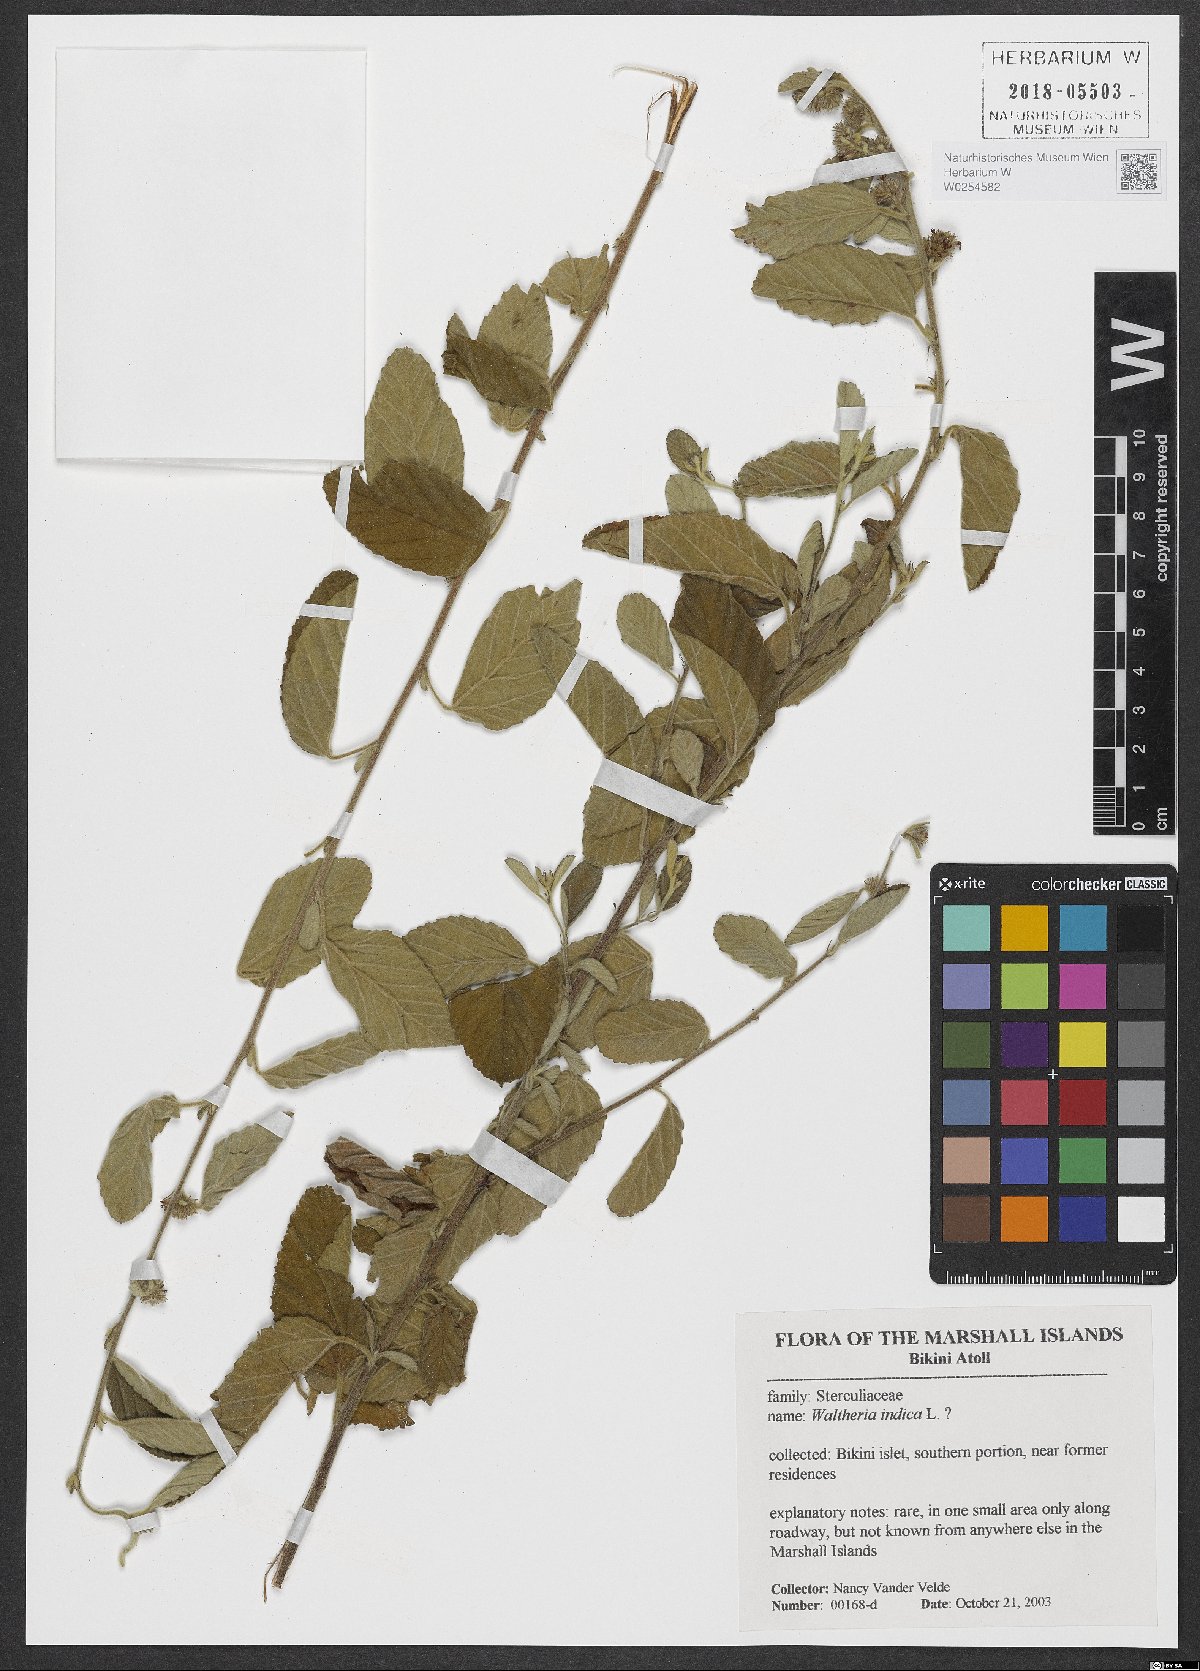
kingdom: Plantae
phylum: Tracheophyta
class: Magnoliopsida
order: Malvales
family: Malvaceae
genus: Waltheria
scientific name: Waltheria indica
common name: Leather-coat
